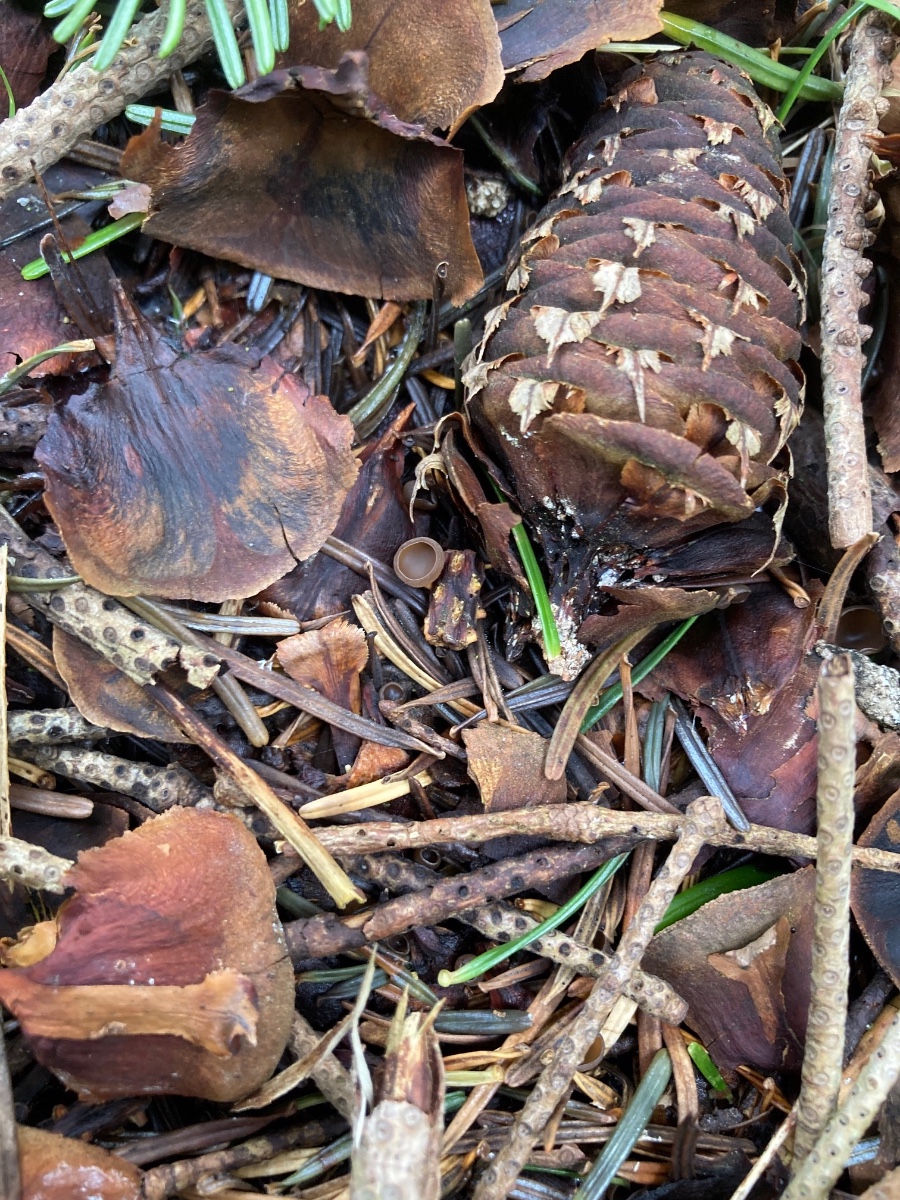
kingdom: Fungi
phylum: Ascomycota
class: Leotiomycetes
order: Helotiales
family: Sclerotiniaceae
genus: Ciboria
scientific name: Ciboria rufofusca
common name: kogleskæl-knoldskive
